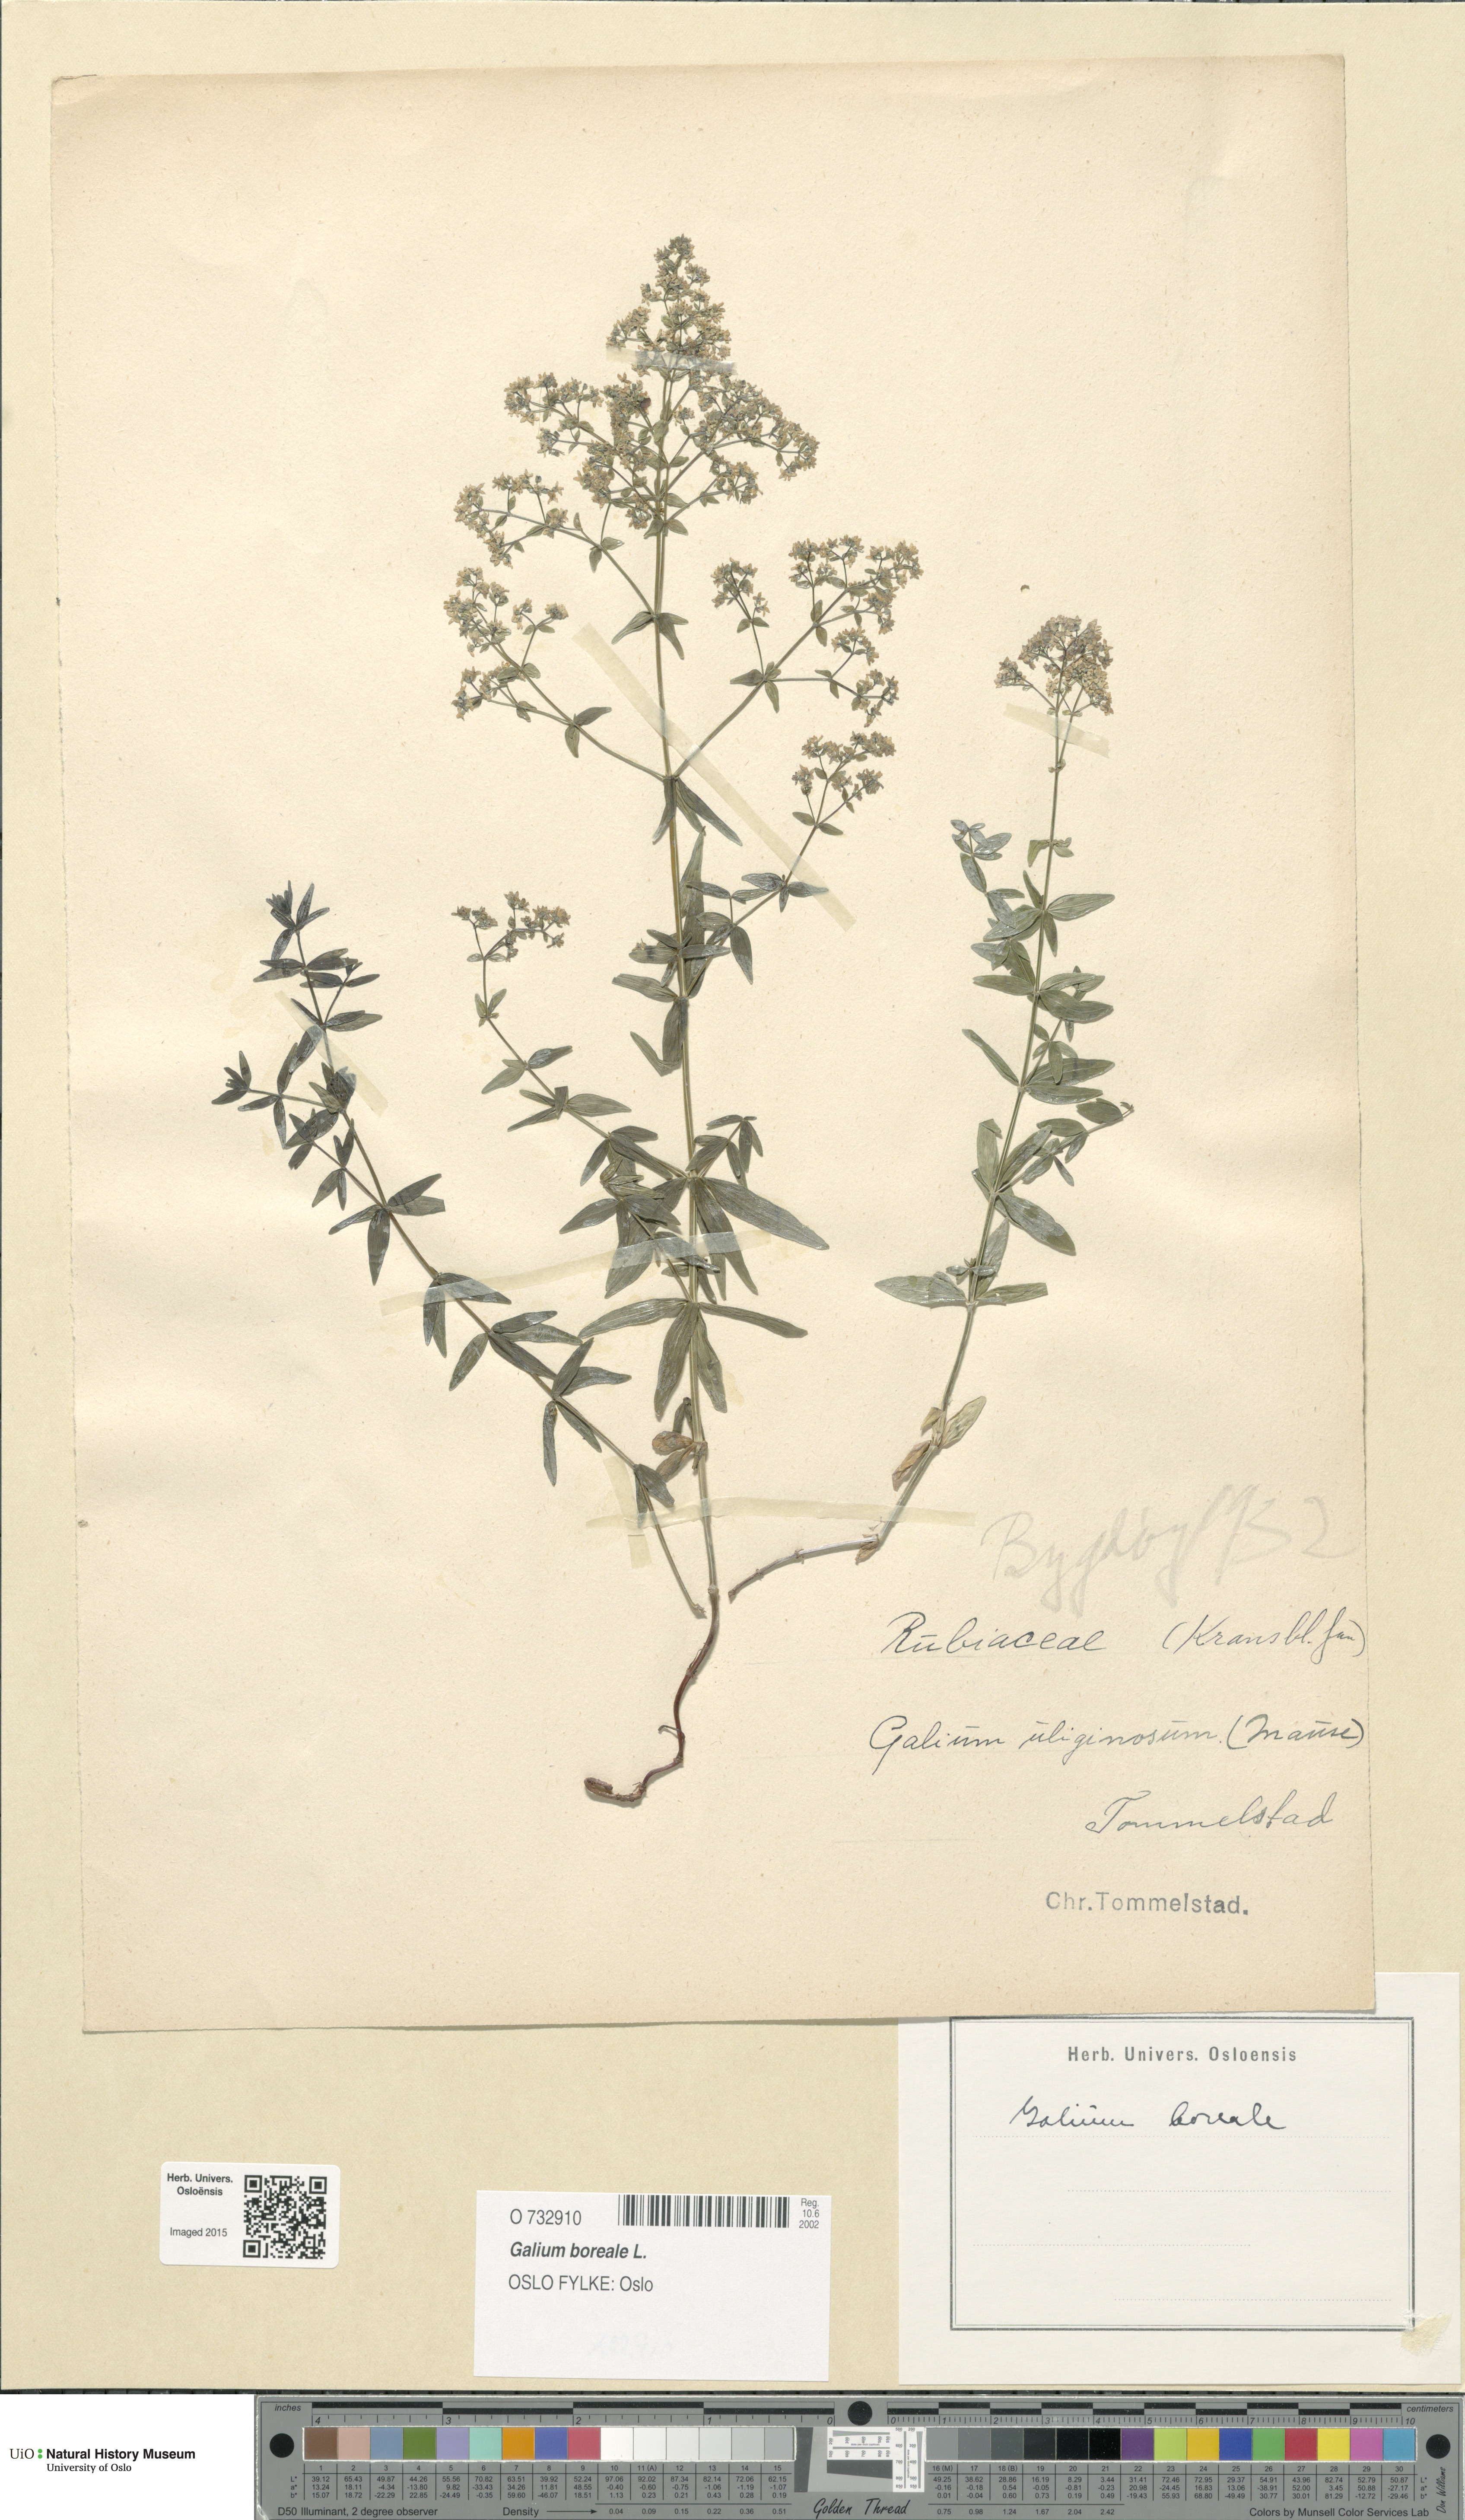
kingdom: Plantae
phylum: Tracheophyta
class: Magnoliopsida
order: Gentianales
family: Rubiaceae
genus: Galium
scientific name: Galium boreale
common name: Northern bedstraw
